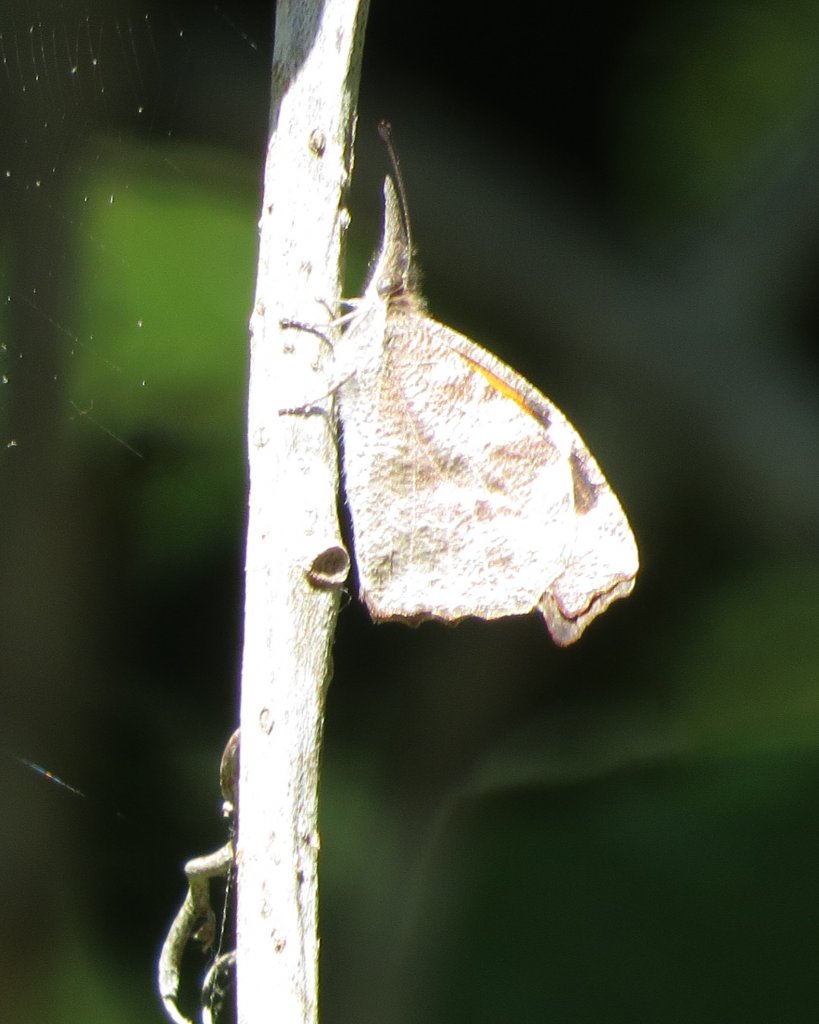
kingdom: Animalia
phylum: Arthropoda
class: Insecta
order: Lepidoptera
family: Nymphalidae
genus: Libytheana
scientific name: Libytheana carinenta
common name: American Snout
